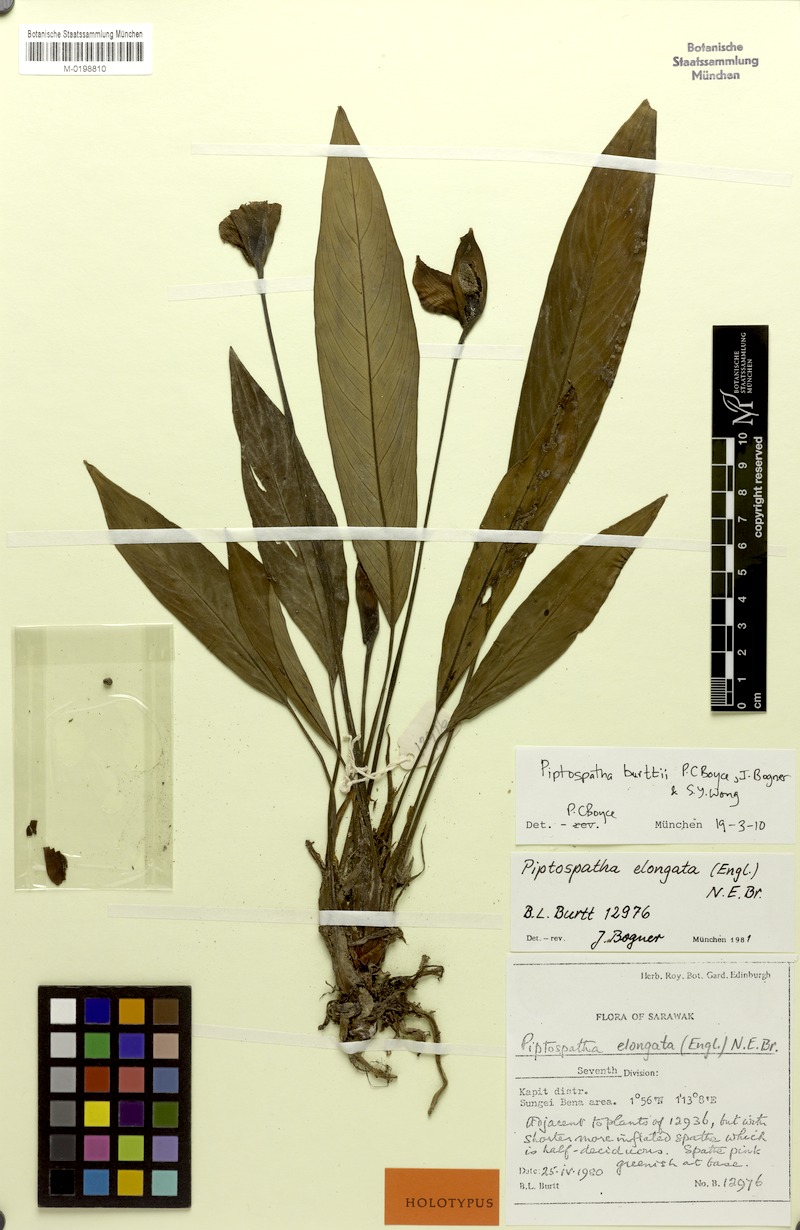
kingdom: Plantae
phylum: Tracheophyta
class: Liliopsida
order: Alismatales
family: Araceae
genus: Piptospatha
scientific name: Piptospatha
